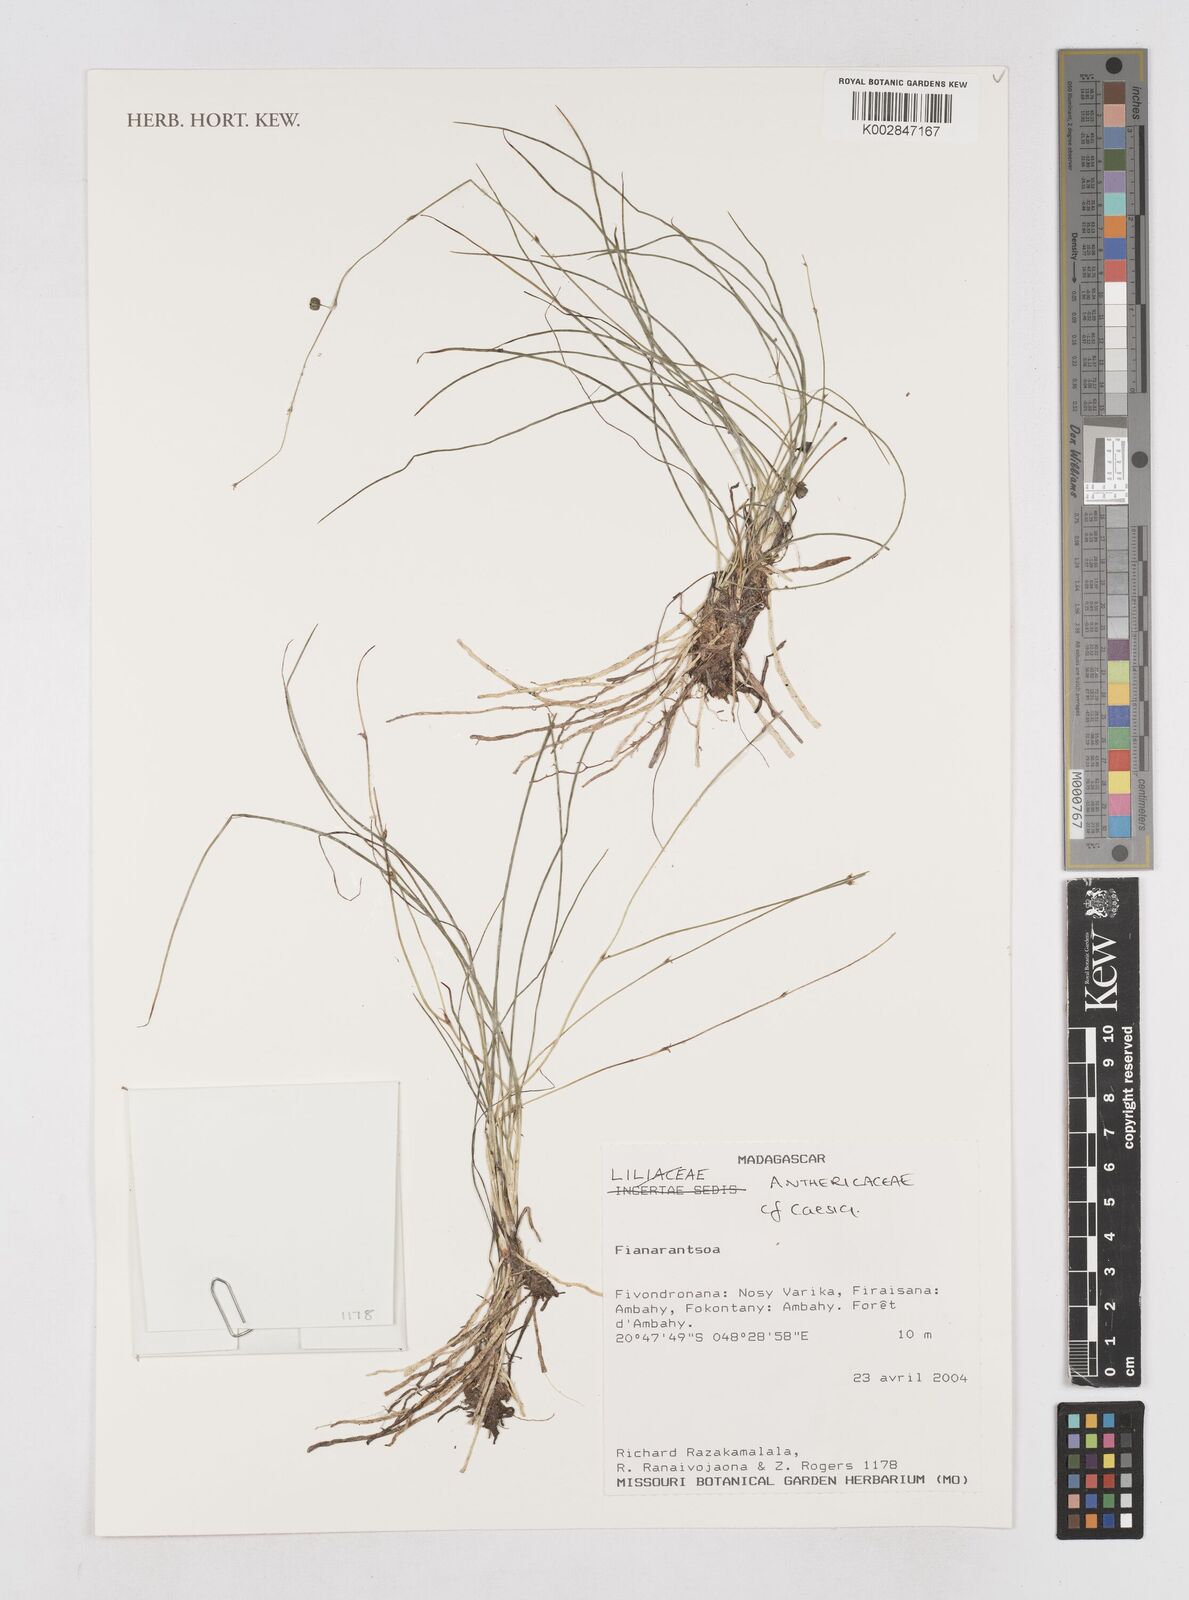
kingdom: Plantae
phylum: Tracheophyta
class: Liliopsida
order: Asparagales
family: Asphodelaceae
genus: Caesia
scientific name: Caesia subulata
